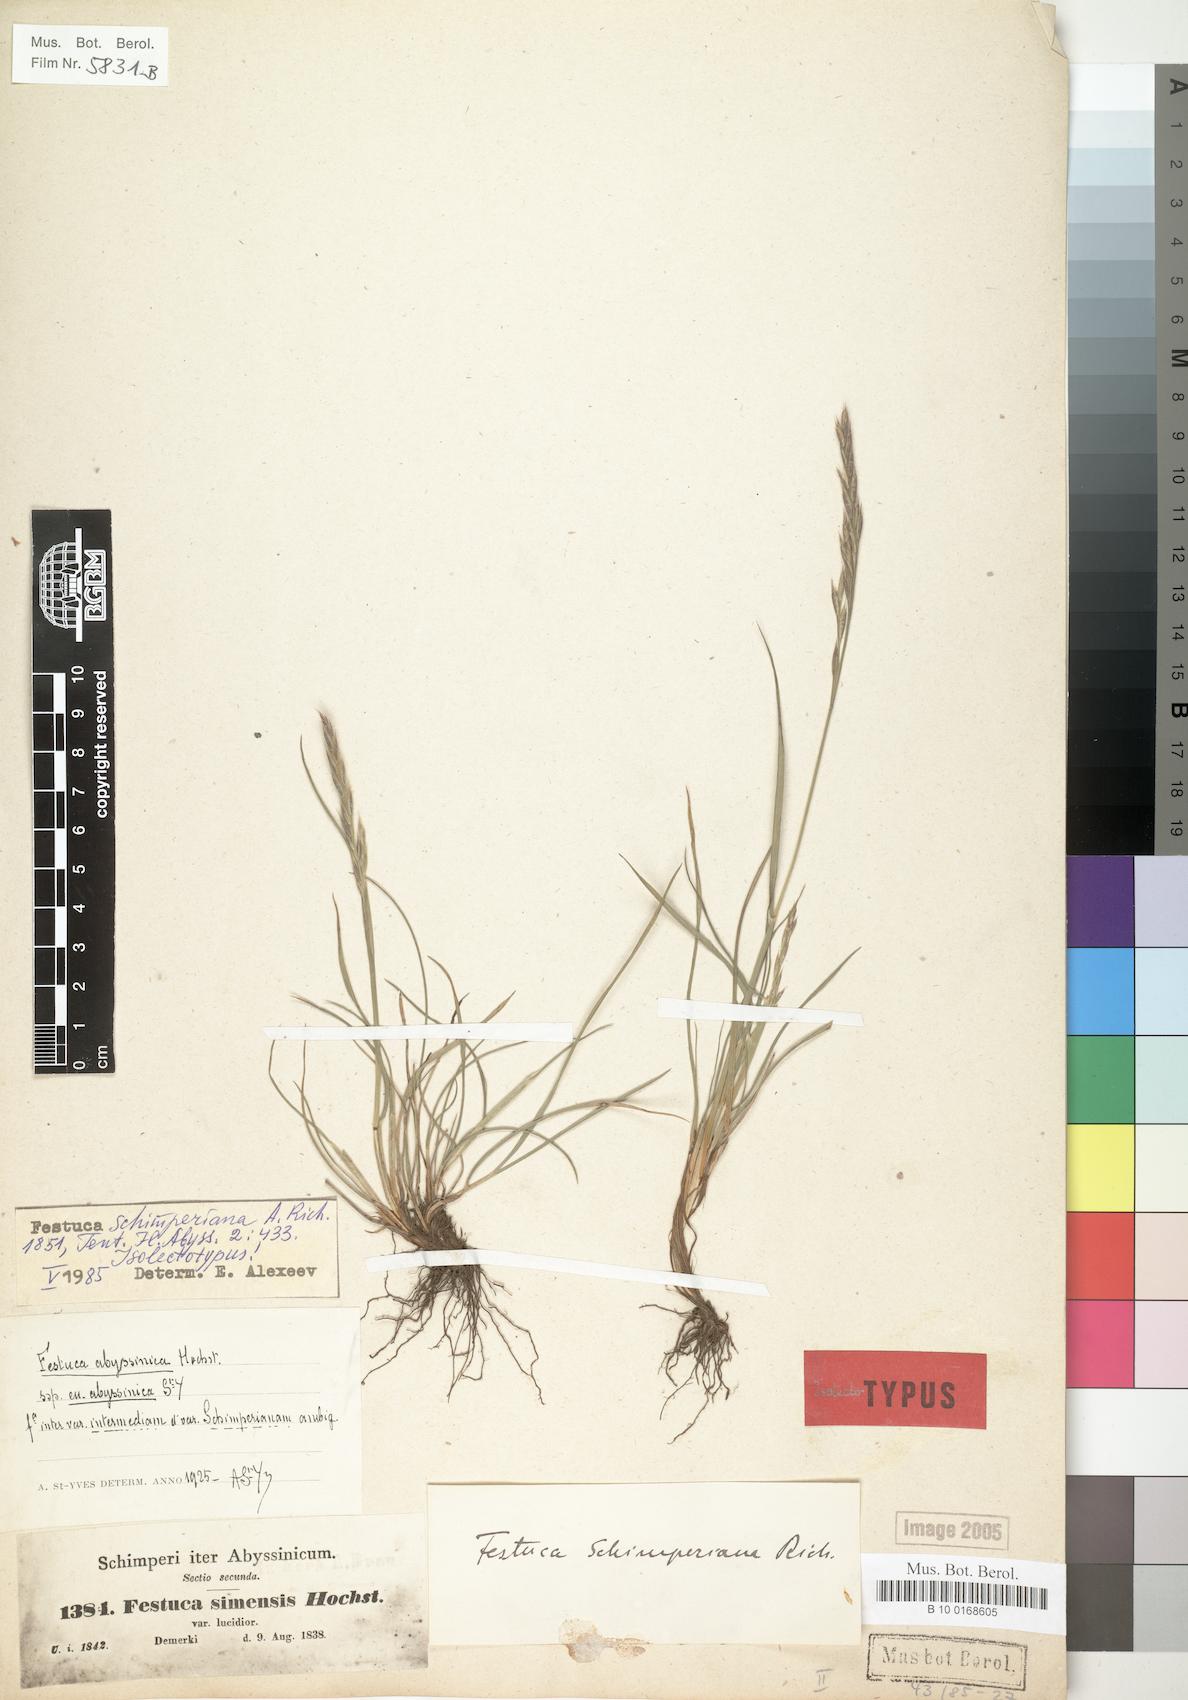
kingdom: Plantae
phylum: Tracheophyta
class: Liliopsida
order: Poales
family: Poaceae
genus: Festuca
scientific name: Festuca abyssinica
